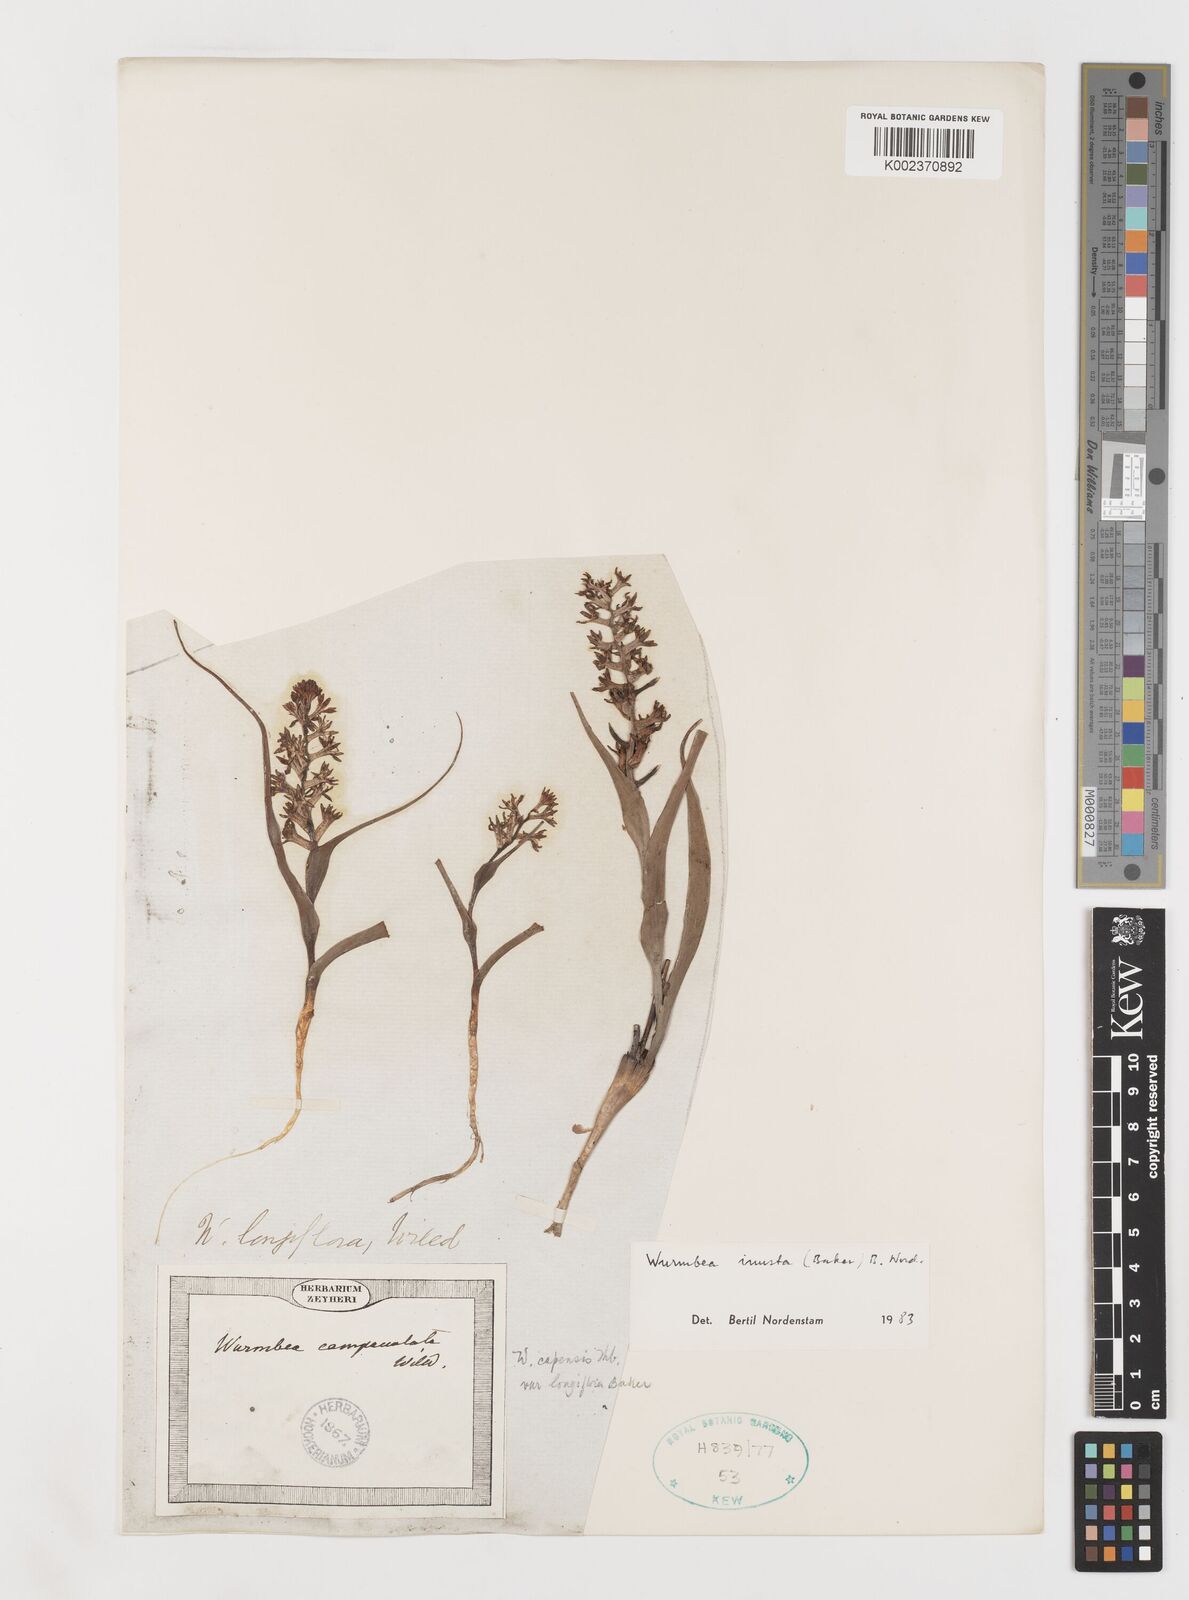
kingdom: Plantae
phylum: Tracheophyta
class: Liliopsida
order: Liliales
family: Colchicaceae
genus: Wurmbea
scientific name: Wurmbea inusta
